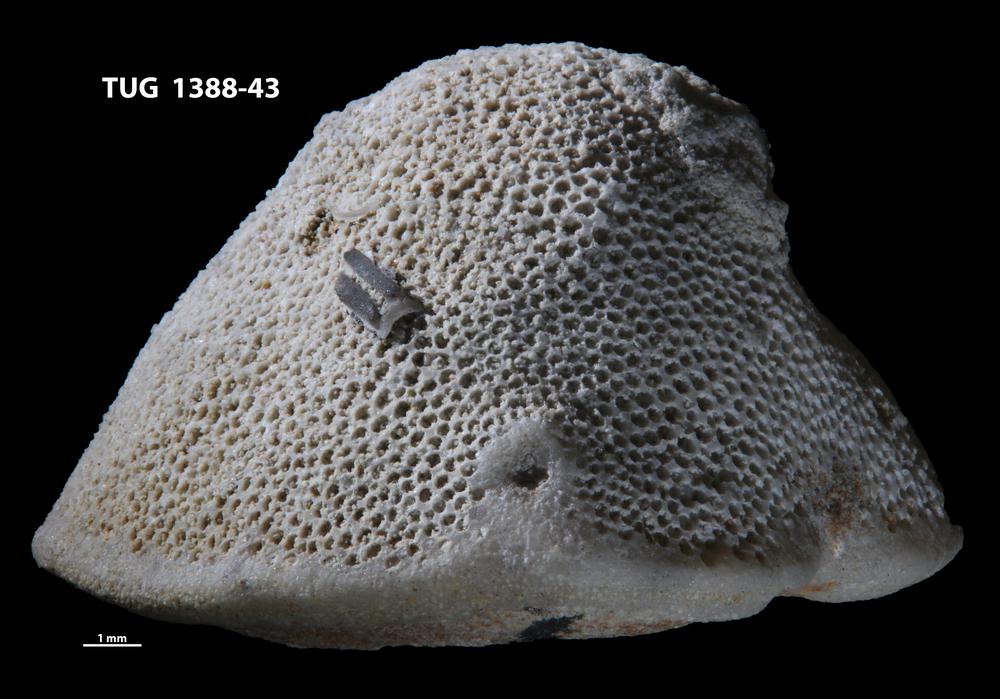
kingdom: Animalia
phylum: Annelida
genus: Anoigmaichnus
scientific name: Anoigmaichnus
